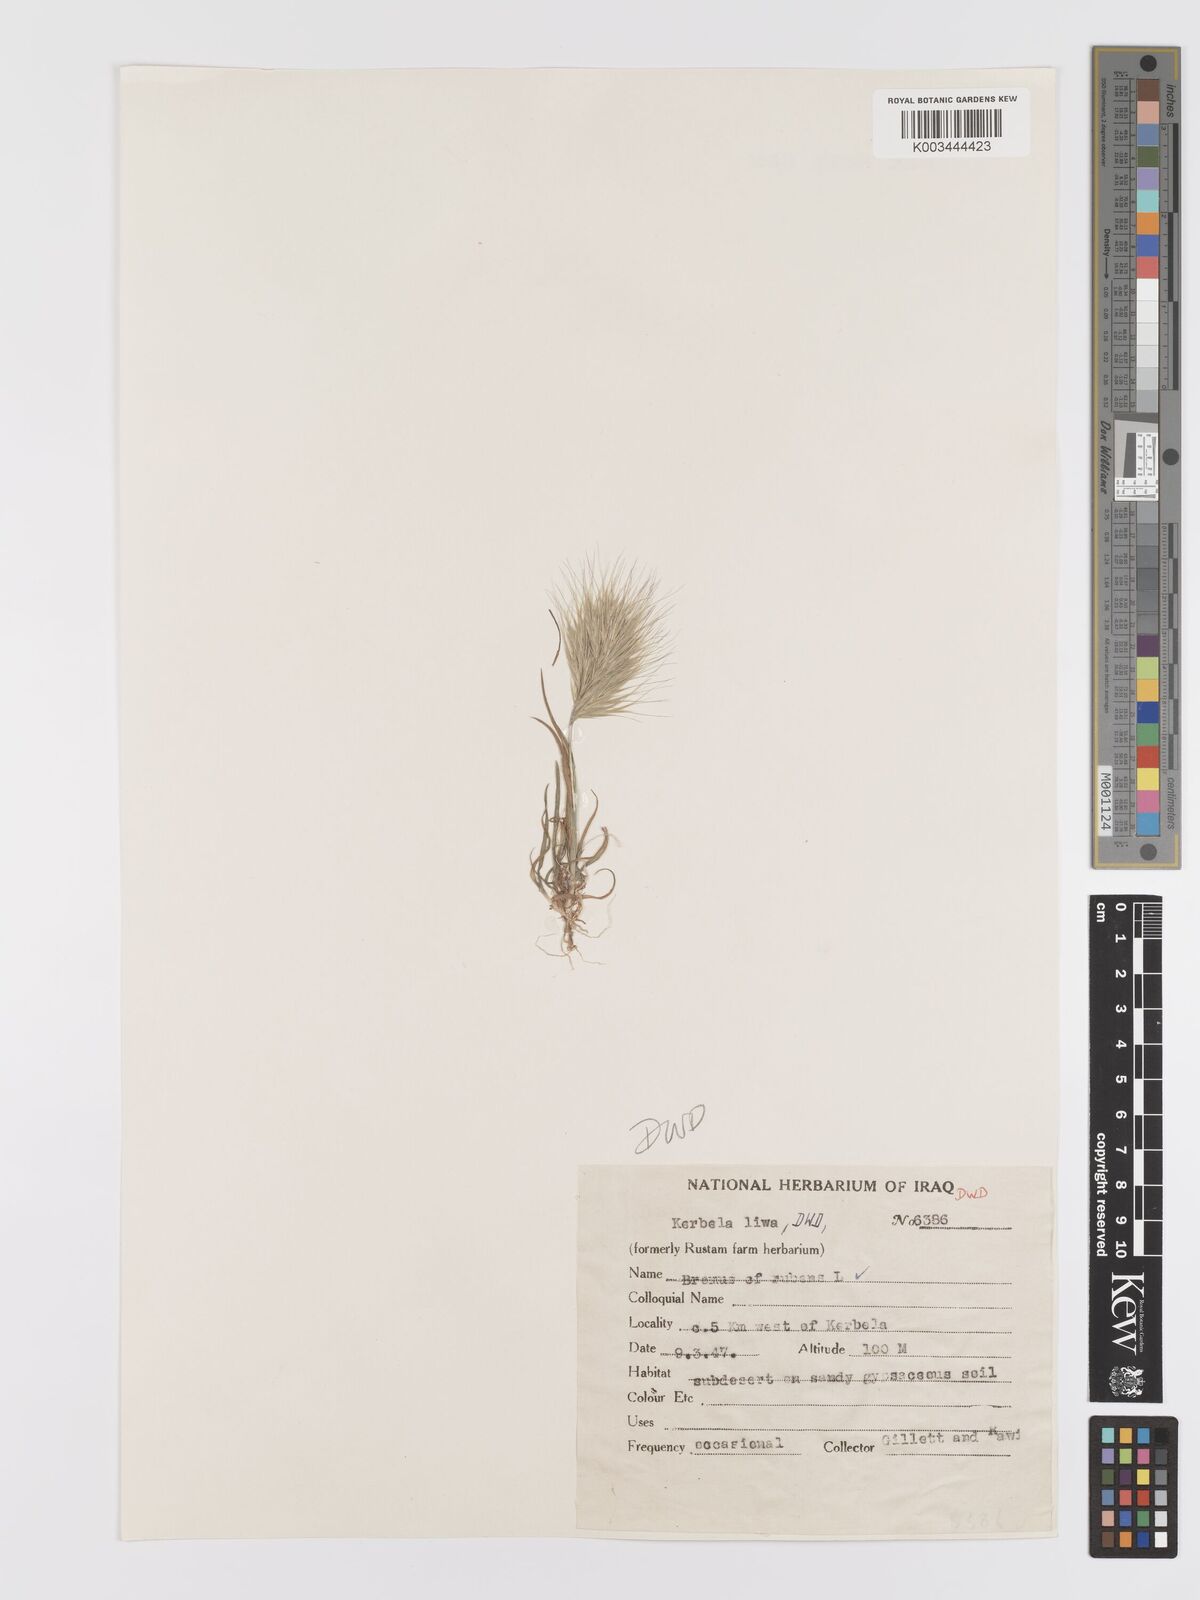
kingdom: Plantae
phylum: Tracheophyta
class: Liliopsida
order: Poales
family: Poaceae
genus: Bromus
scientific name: Bromus rubens
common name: Red brome
